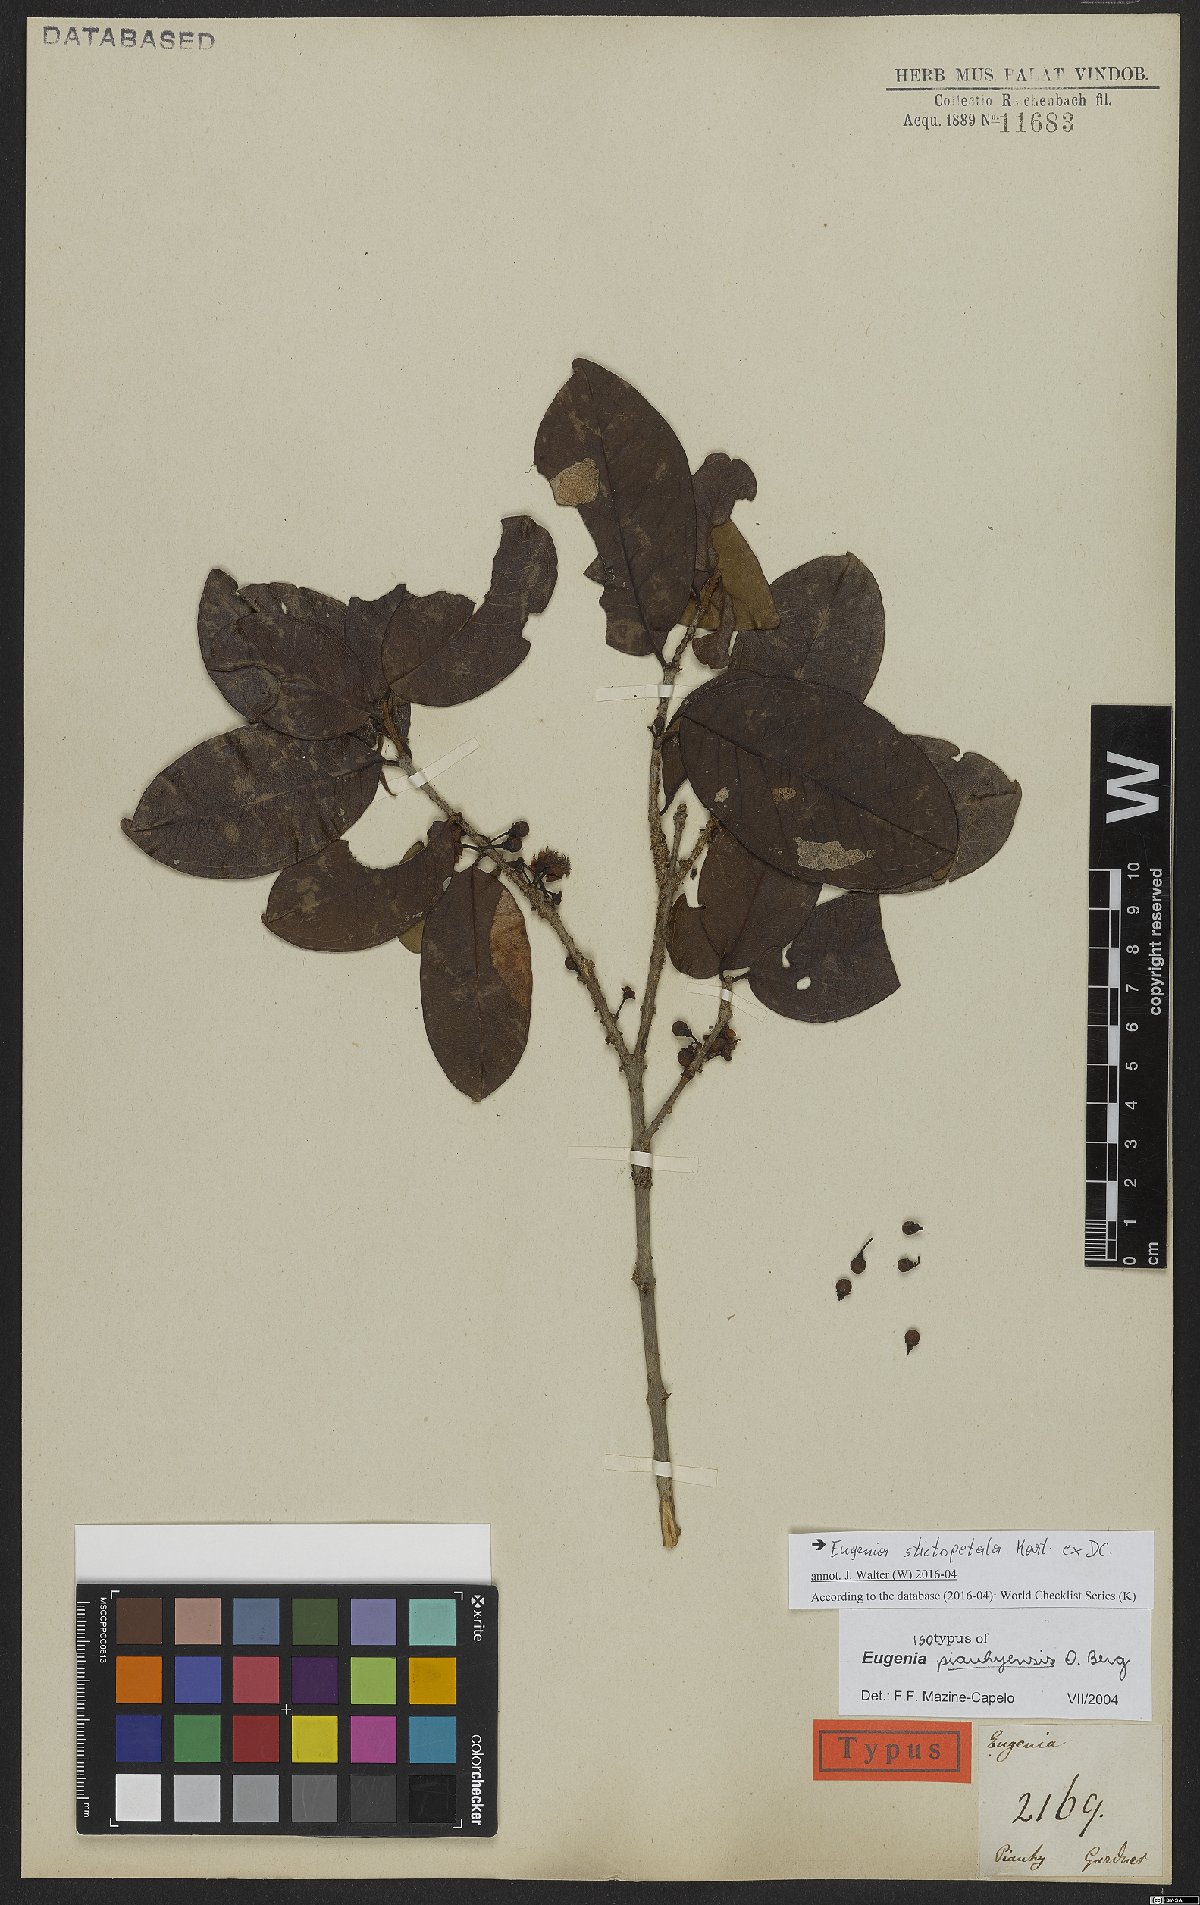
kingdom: Plantae
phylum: Tracheophyta
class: Magnoliopsida
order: Myrtales
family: Myrtaceae
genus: Eugenia
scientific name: Eugenia stictopetala
